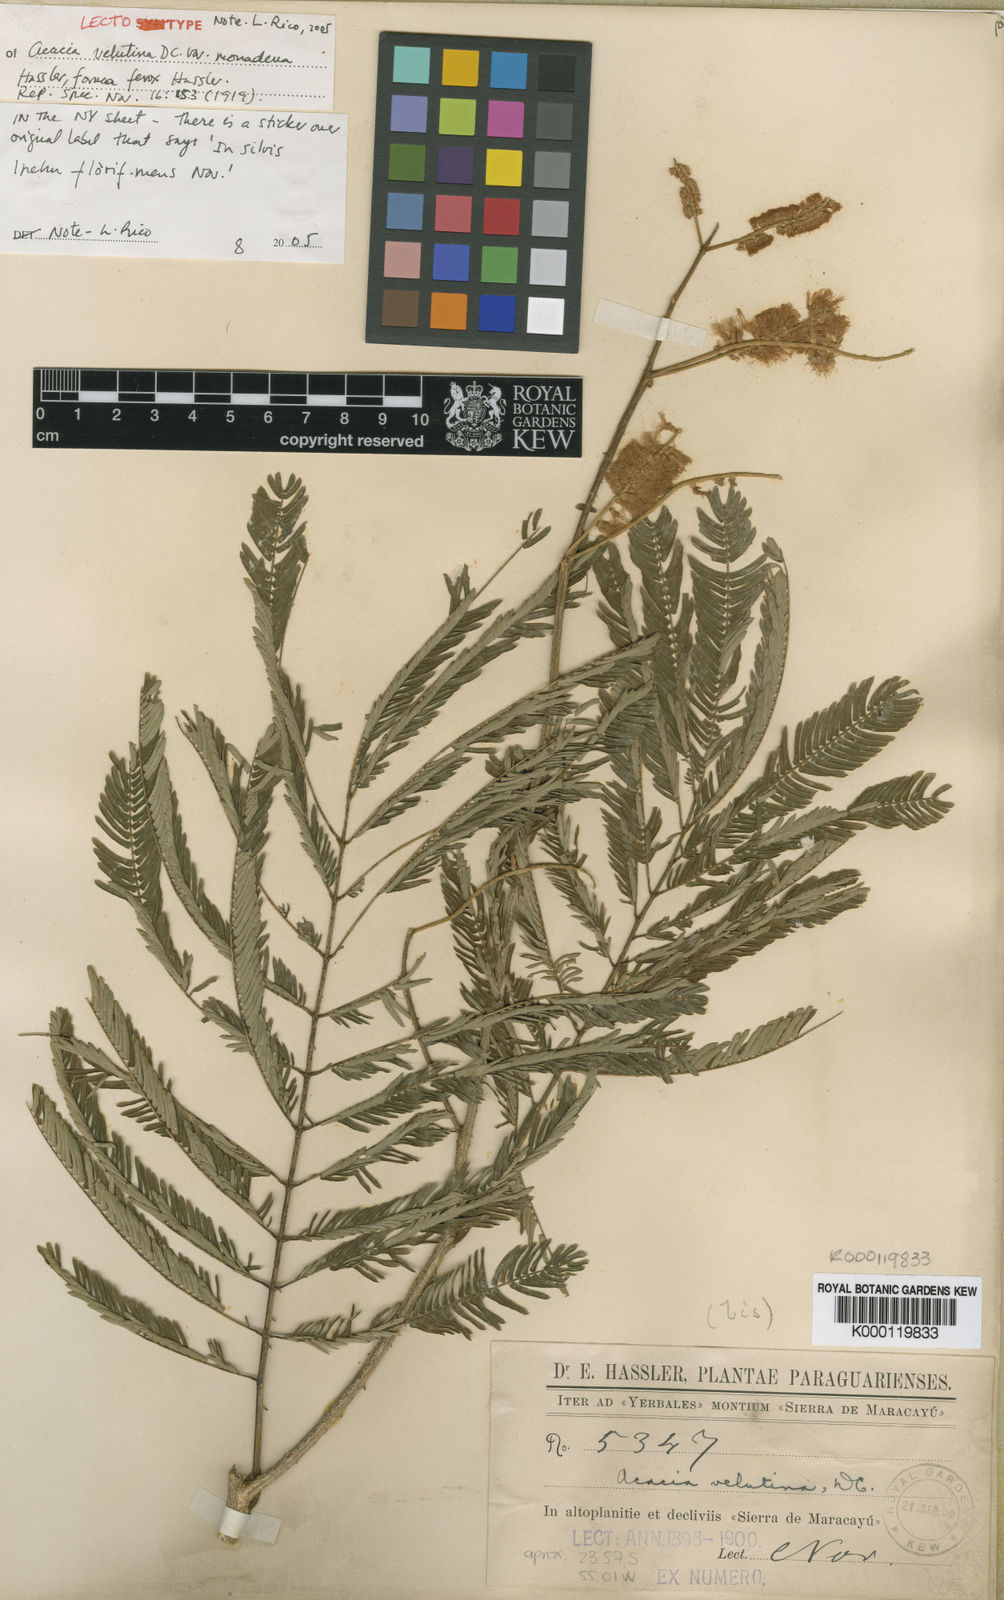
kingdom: Plantae
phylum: Tracheophyta
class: Magnoliopsida
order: Fabales
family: Fabaceae
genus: Senegalia
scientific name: Senegalia velutina
